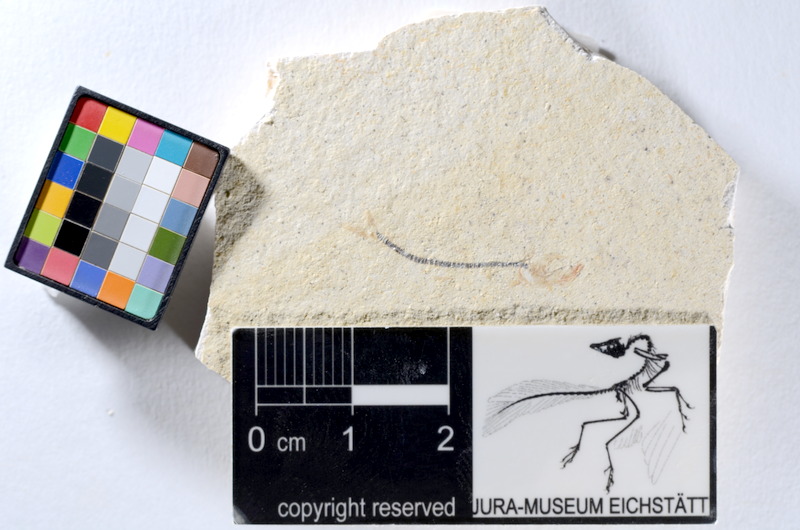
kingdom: Animalia
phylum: Chordata
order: Salmoniformes
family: Orthogonikleithridae
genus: Orthogonikleithrus
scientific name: Orthogonikleithrus hoelli
